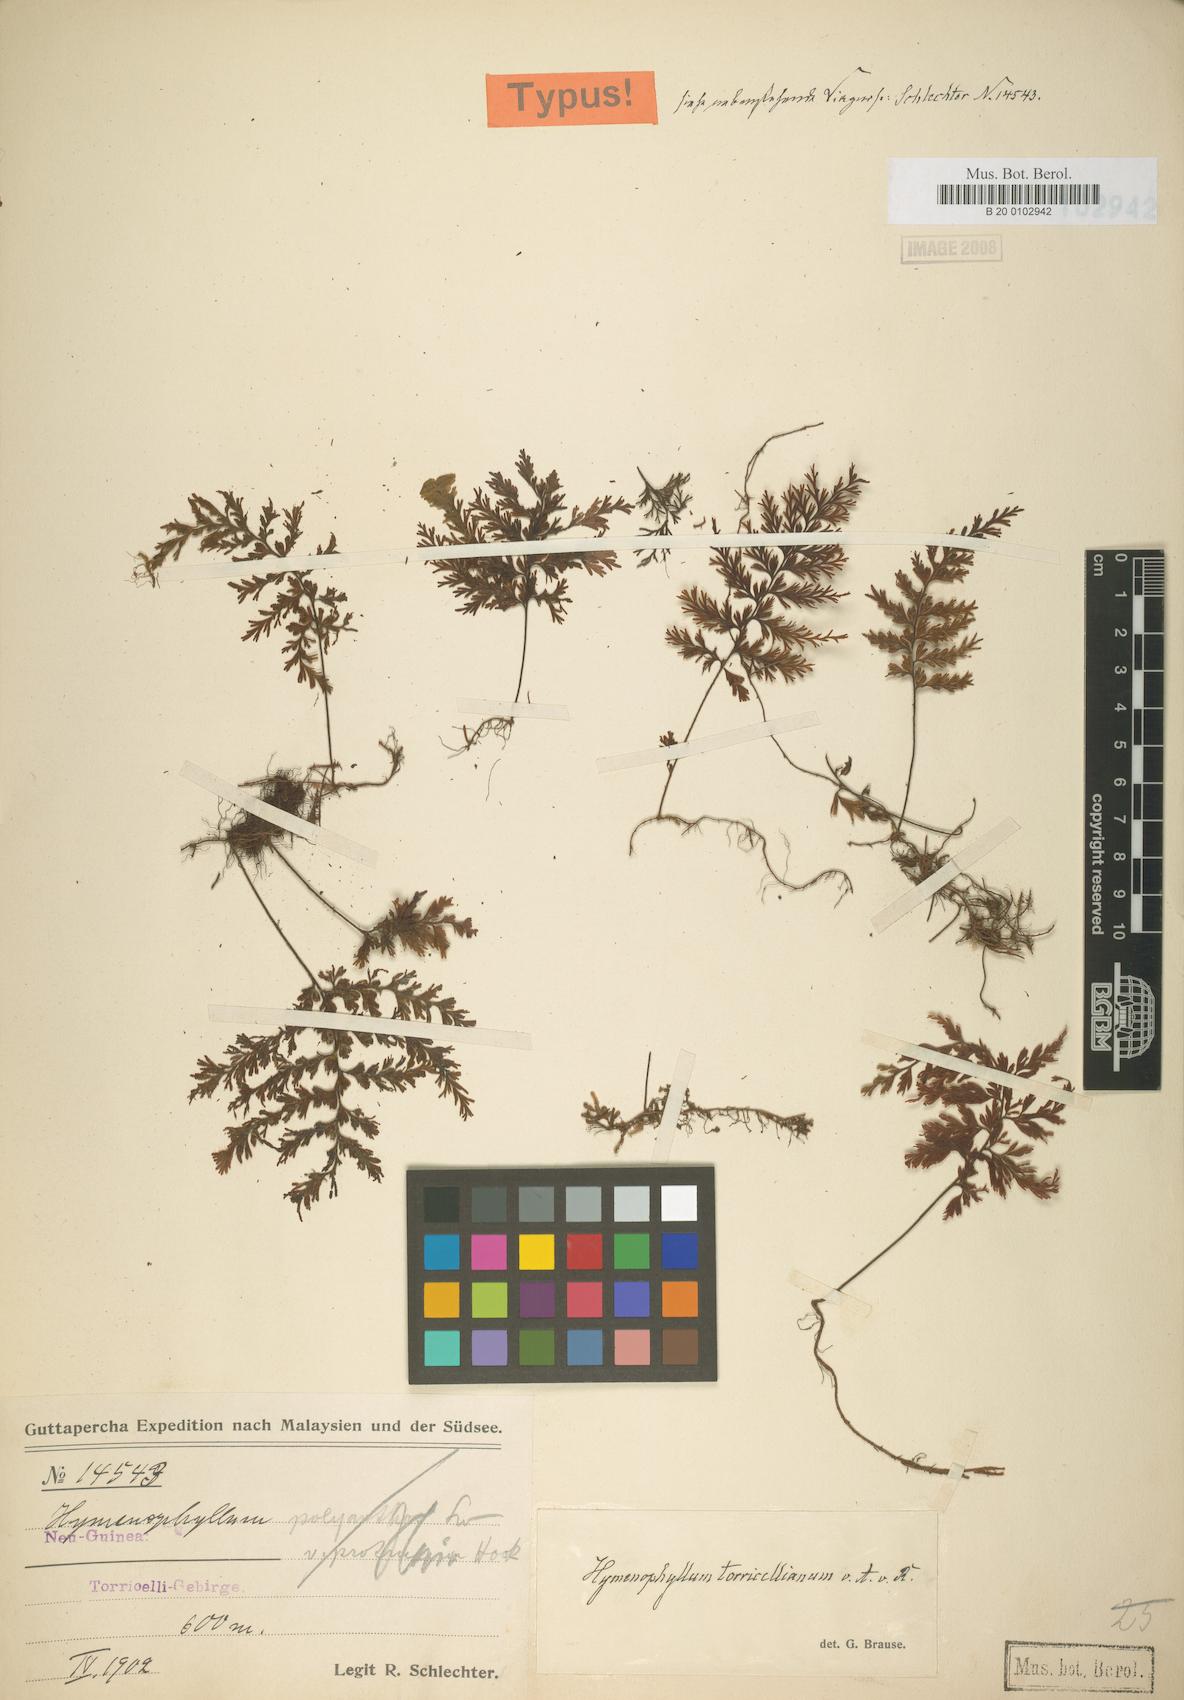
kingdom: Plantae
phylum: Tracheophyta
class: Polypodiopsida
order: Hymenophyllales
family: Hymenophyllaceae
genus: Hymenophyllum
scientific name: Hymenophyllum serrulatum
